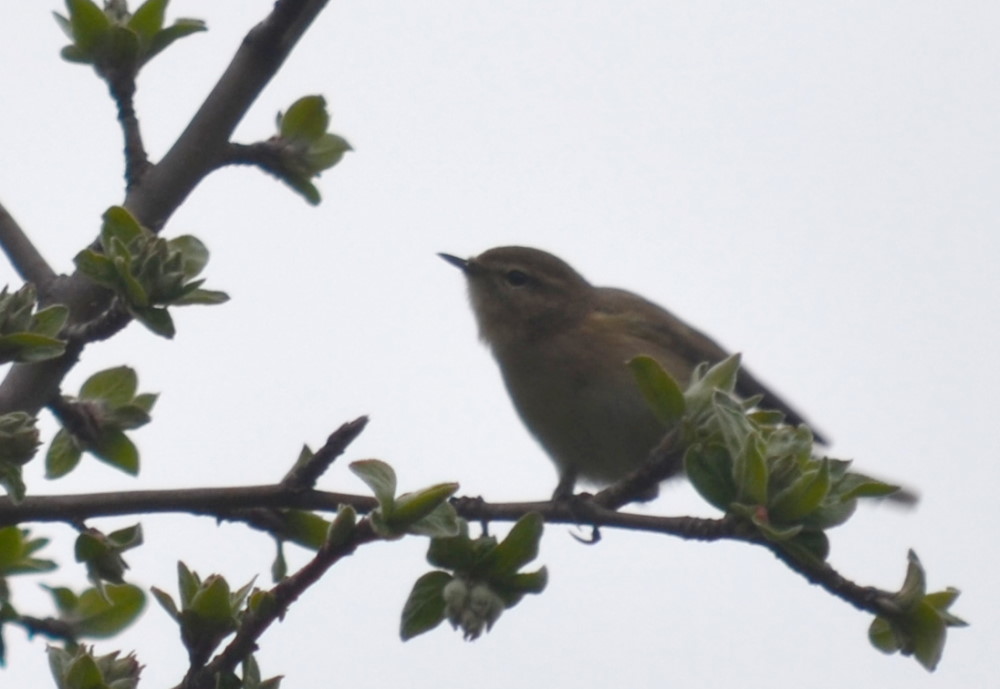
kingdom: Animalia
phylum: Chordata
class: Aves
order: Passeriformes
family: Phylloscopidae
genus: Phylloscopus
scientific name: Phylloscopus collybita
